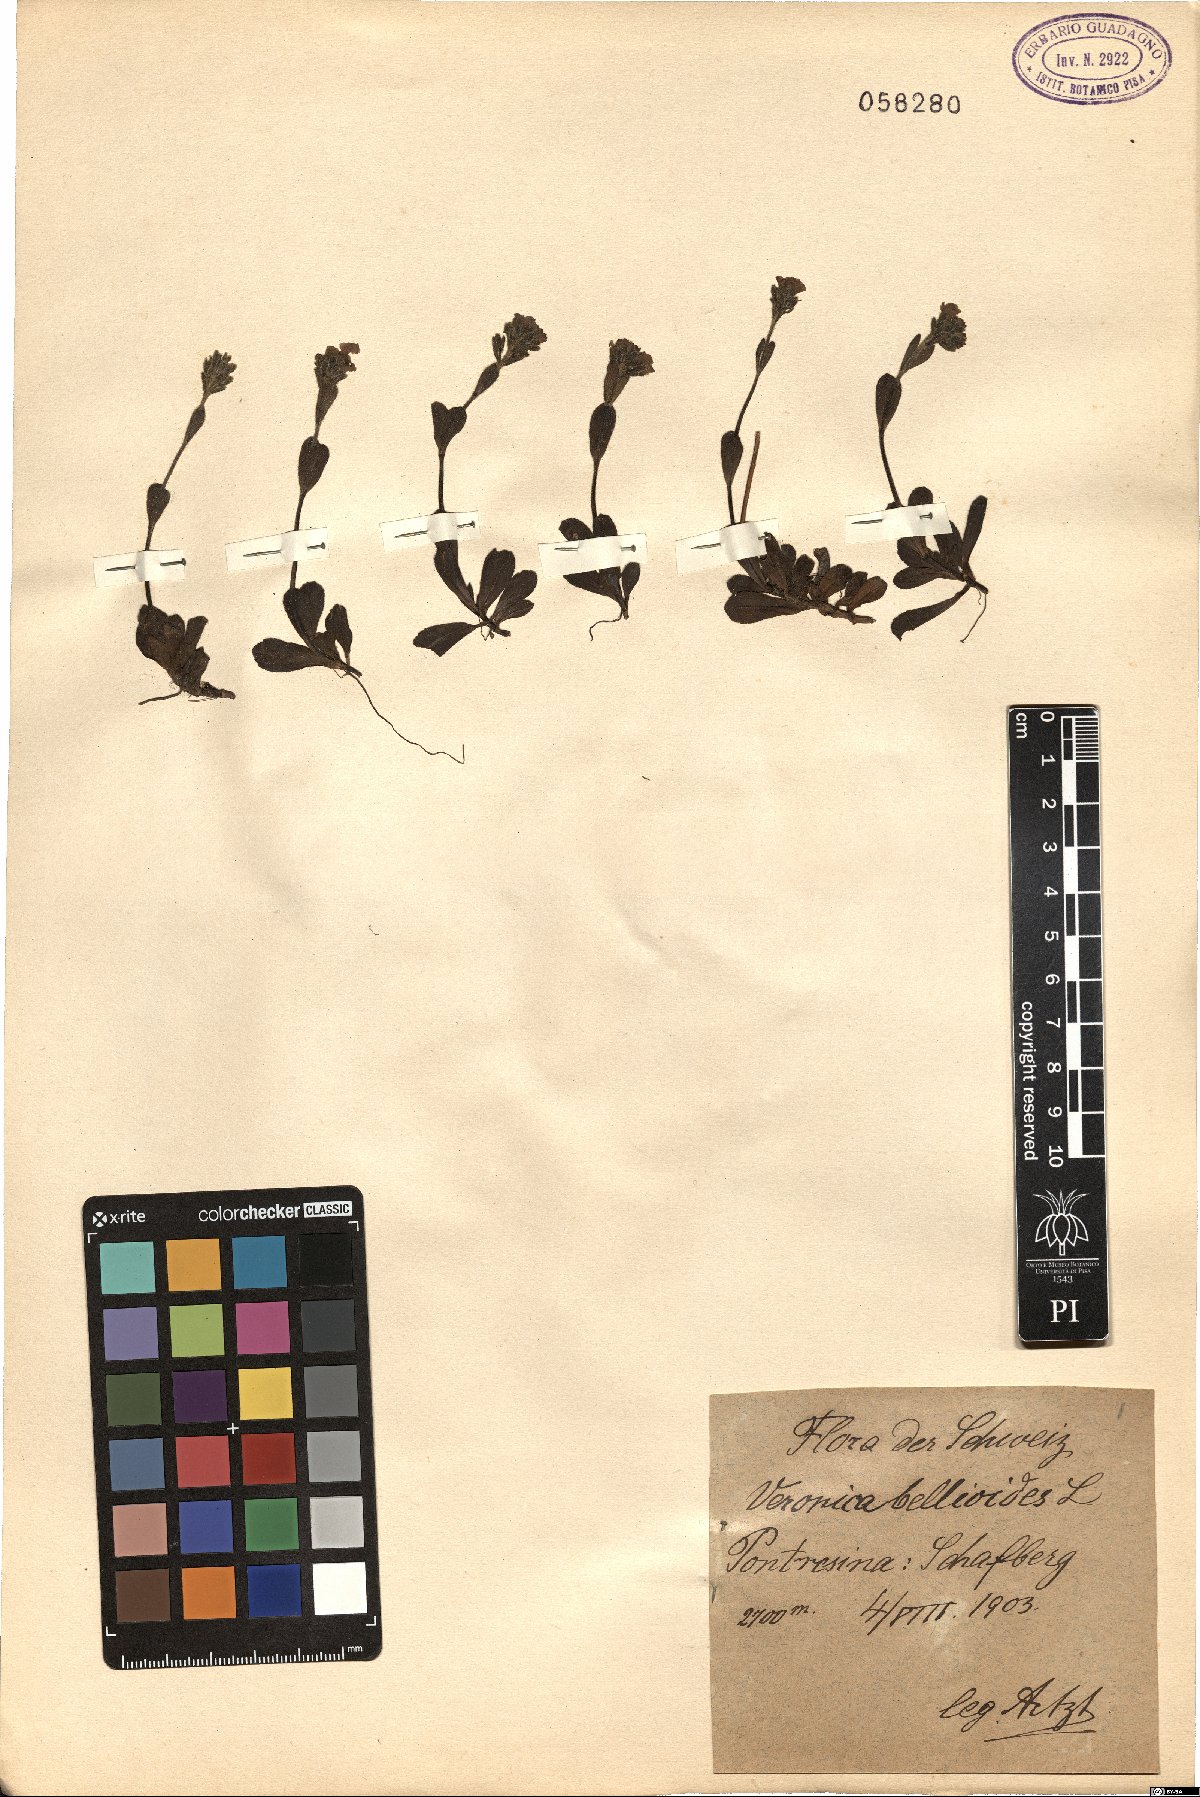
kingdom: Plantae
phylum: Tracheophyta
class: Magnoliopsida
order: Lamiales
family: Plantaginaceae
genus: Veronica
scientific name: Veronica bellidioides
